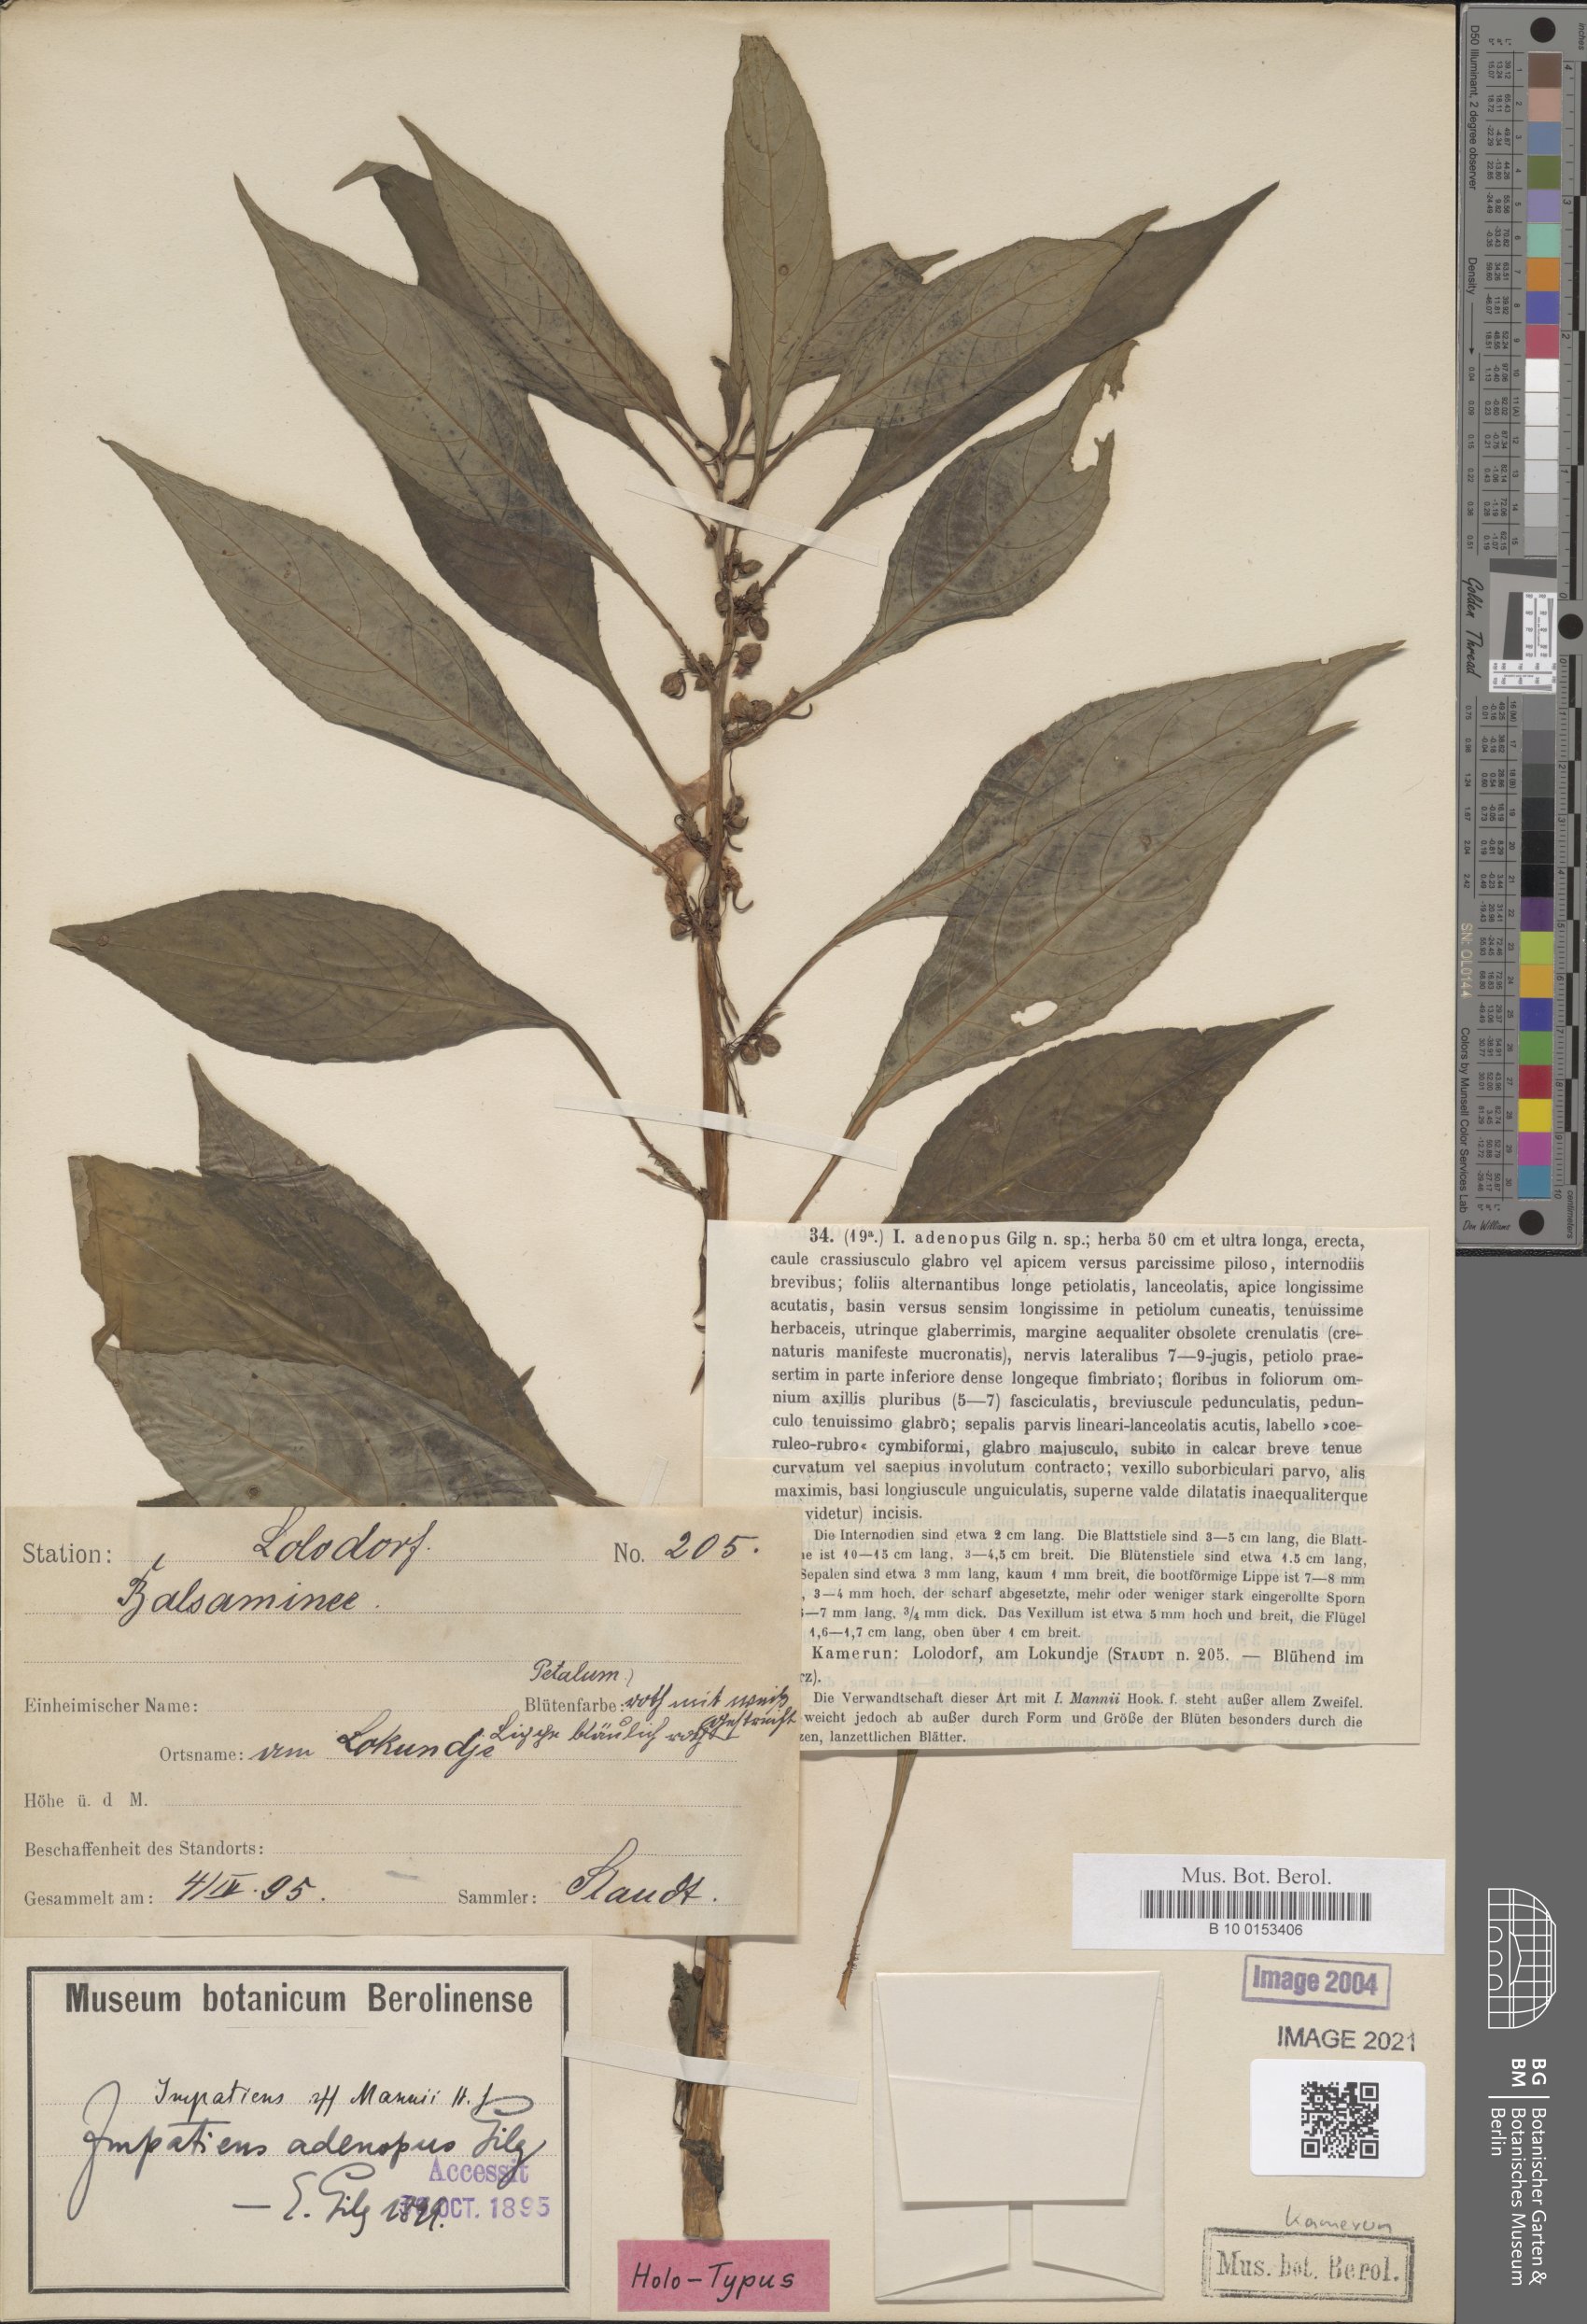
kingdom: Plantae
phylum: Tracheophyta
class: Magnoliopsida
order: Ericales
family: Balsaminaceae
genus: Impatiens
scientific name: Impatiens mannii
